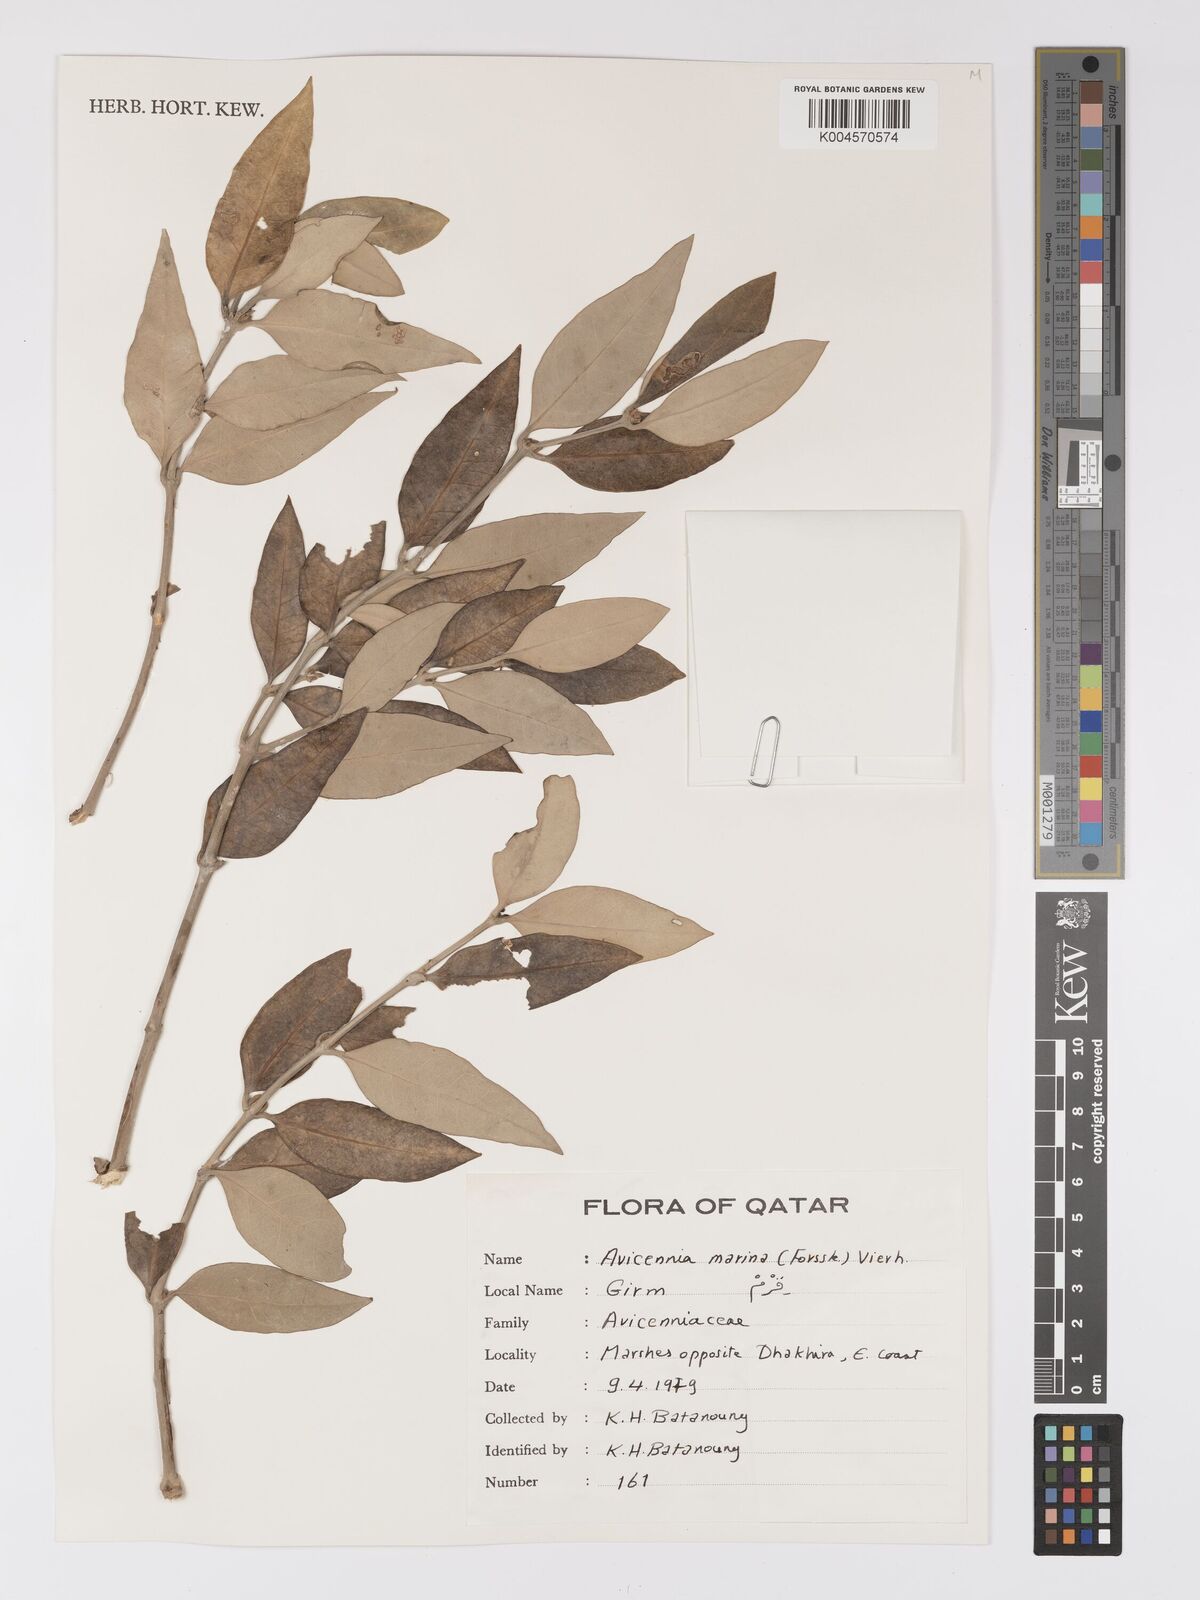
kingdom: Plantae
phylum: Tracheophyta
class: Magnoliopsida
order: Lamiales
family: Acanthaceae
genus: Avicennia
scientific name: Avicennia marina
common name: Gray mangrove
